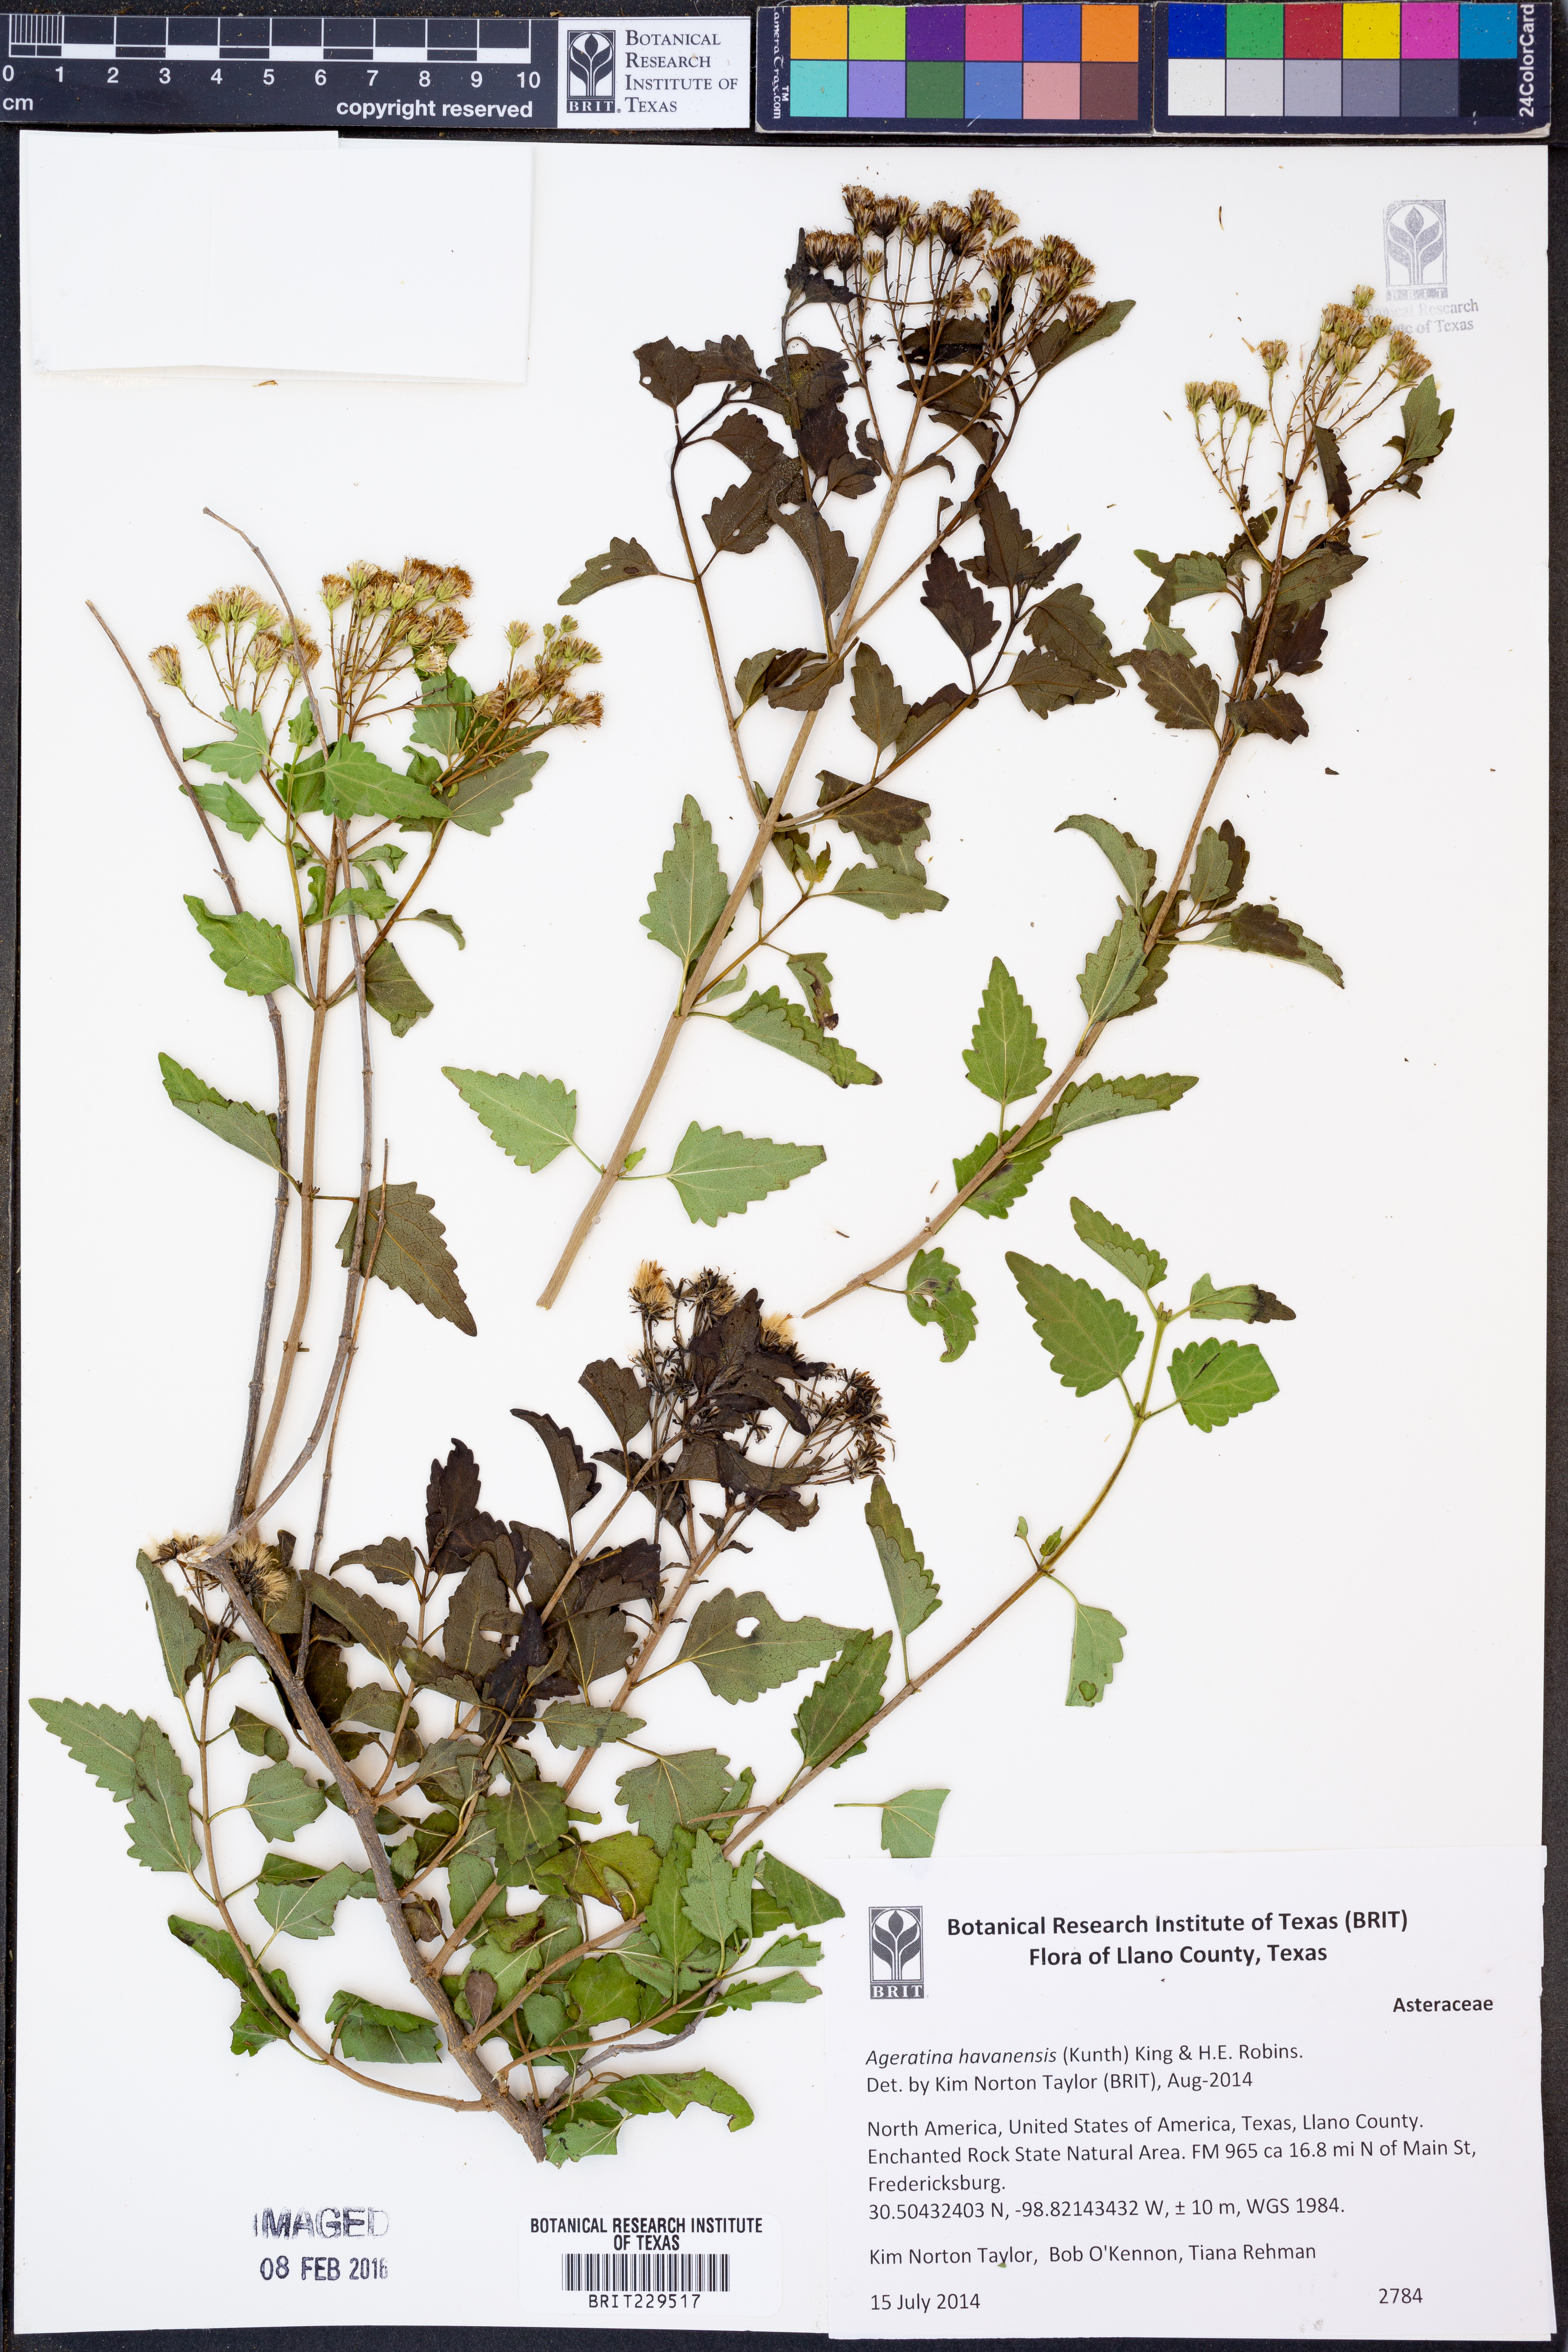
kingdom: Plantae
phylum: Tracheophyta
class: Magnoliopsida
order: Asterales
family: Asteraceae
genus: Ageratina
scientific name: Ageratina havanensis
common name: Havana snakeroot
